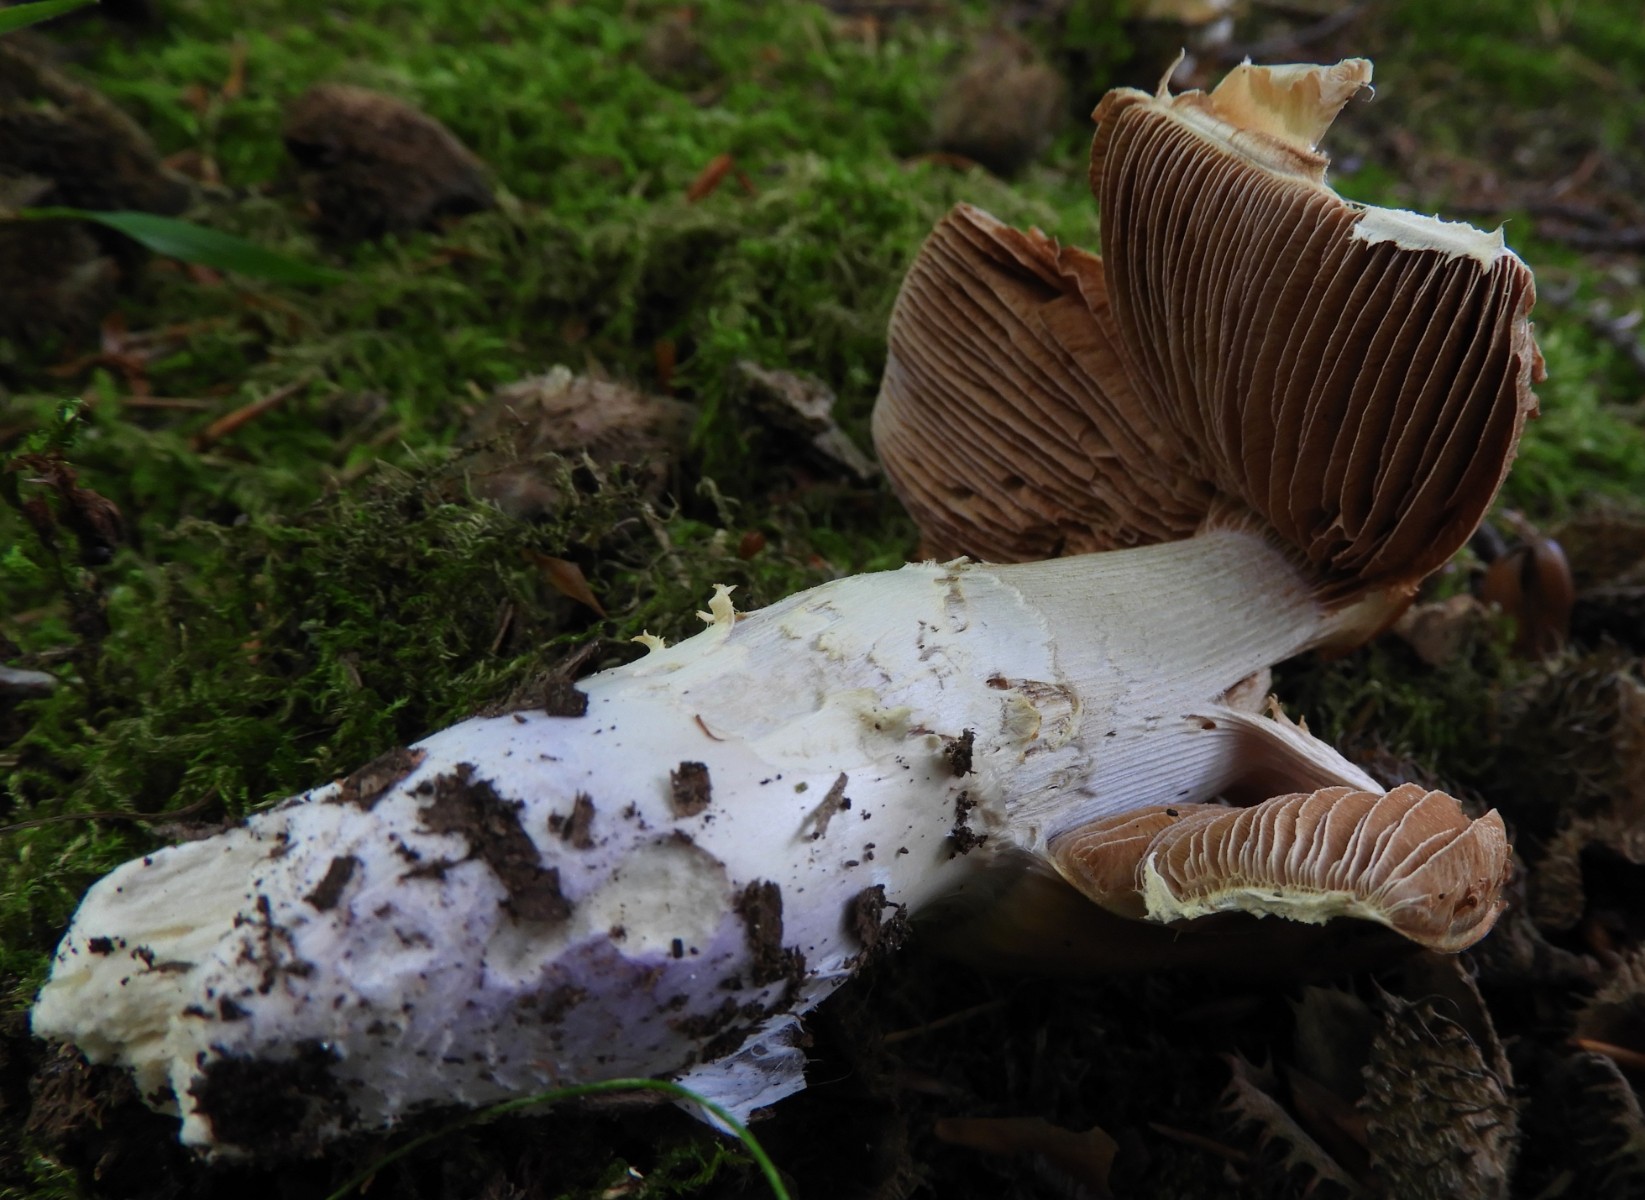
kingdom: Fungi
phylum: Basidiomycota
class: Agaricomycetes
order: Agaricales
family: Cortinariaceae
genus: Cortinarius
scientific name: Cortinarius
